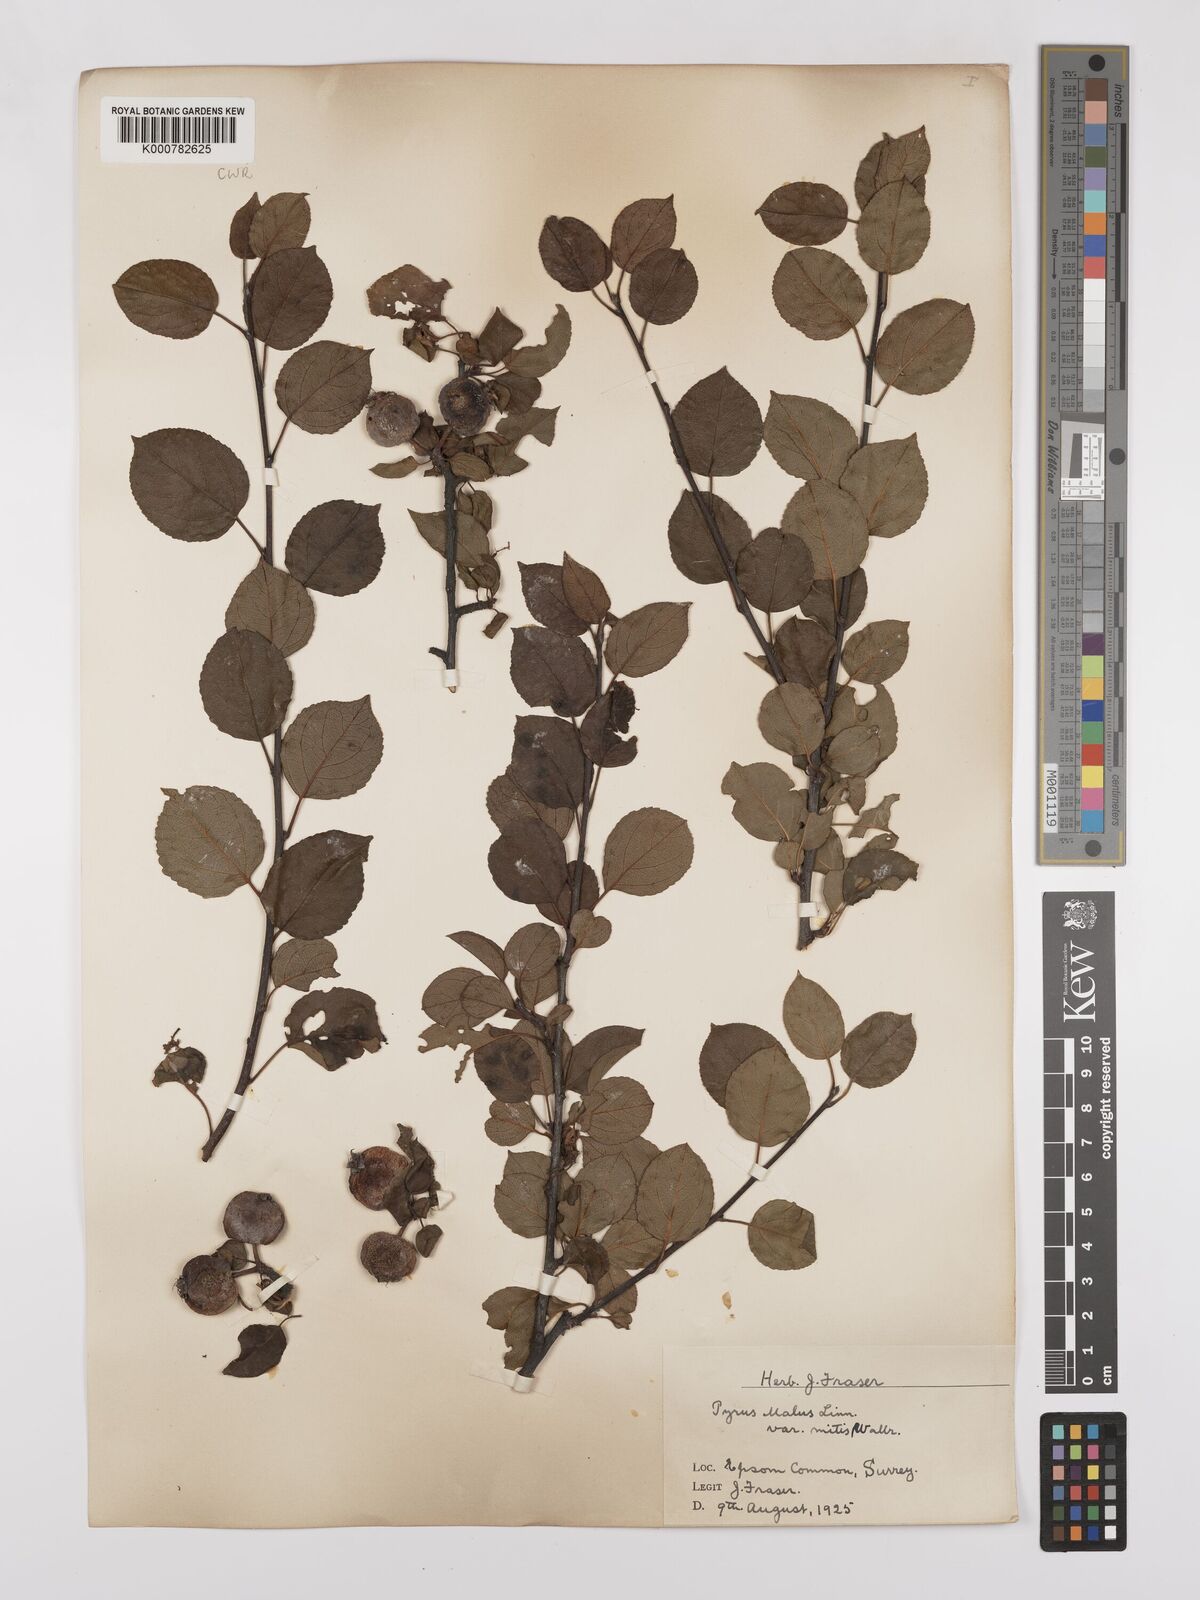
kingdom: Plantae
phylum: Tracheophyta
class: Magnoliopsida
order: Rosales
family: Rosaceae
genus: Malus
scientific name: Malus domestica
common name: Apple
